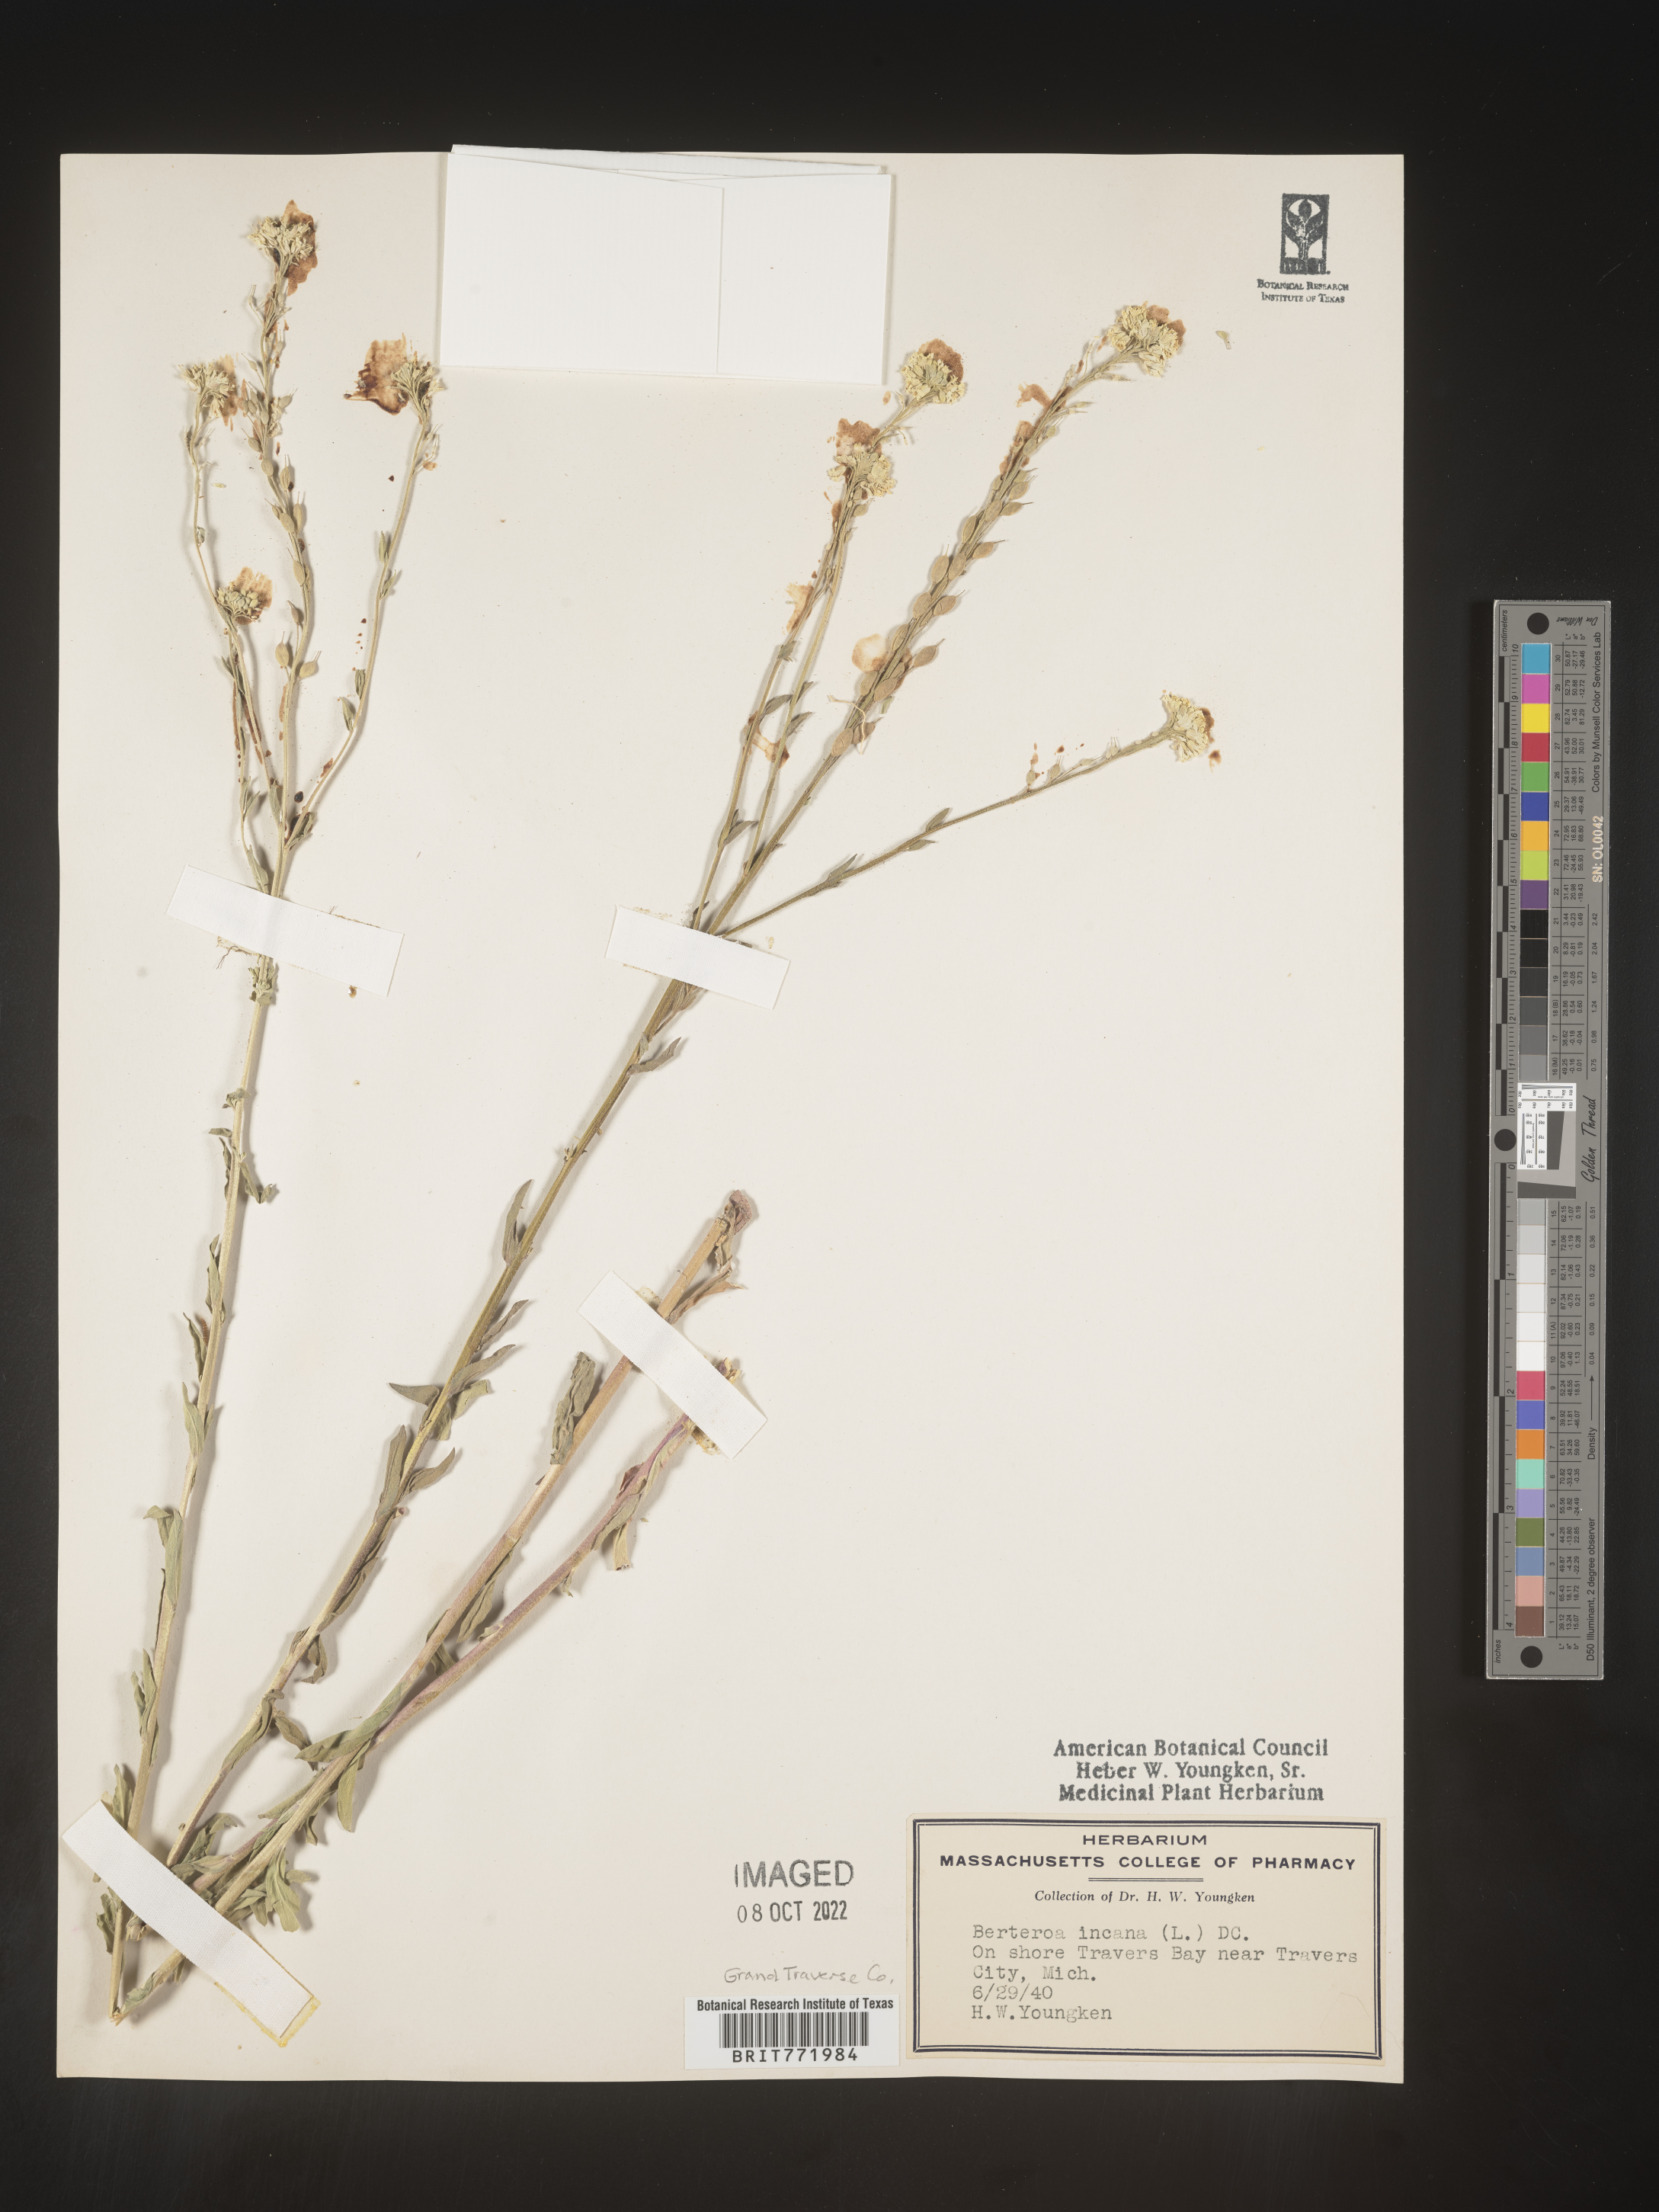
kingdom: Plantae
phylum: Tracheophyta
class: Magnoliopsida
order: Brassicales
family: Brassicaceae
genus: Berteroa
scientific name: Berteroa incana
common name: Hoary alison
